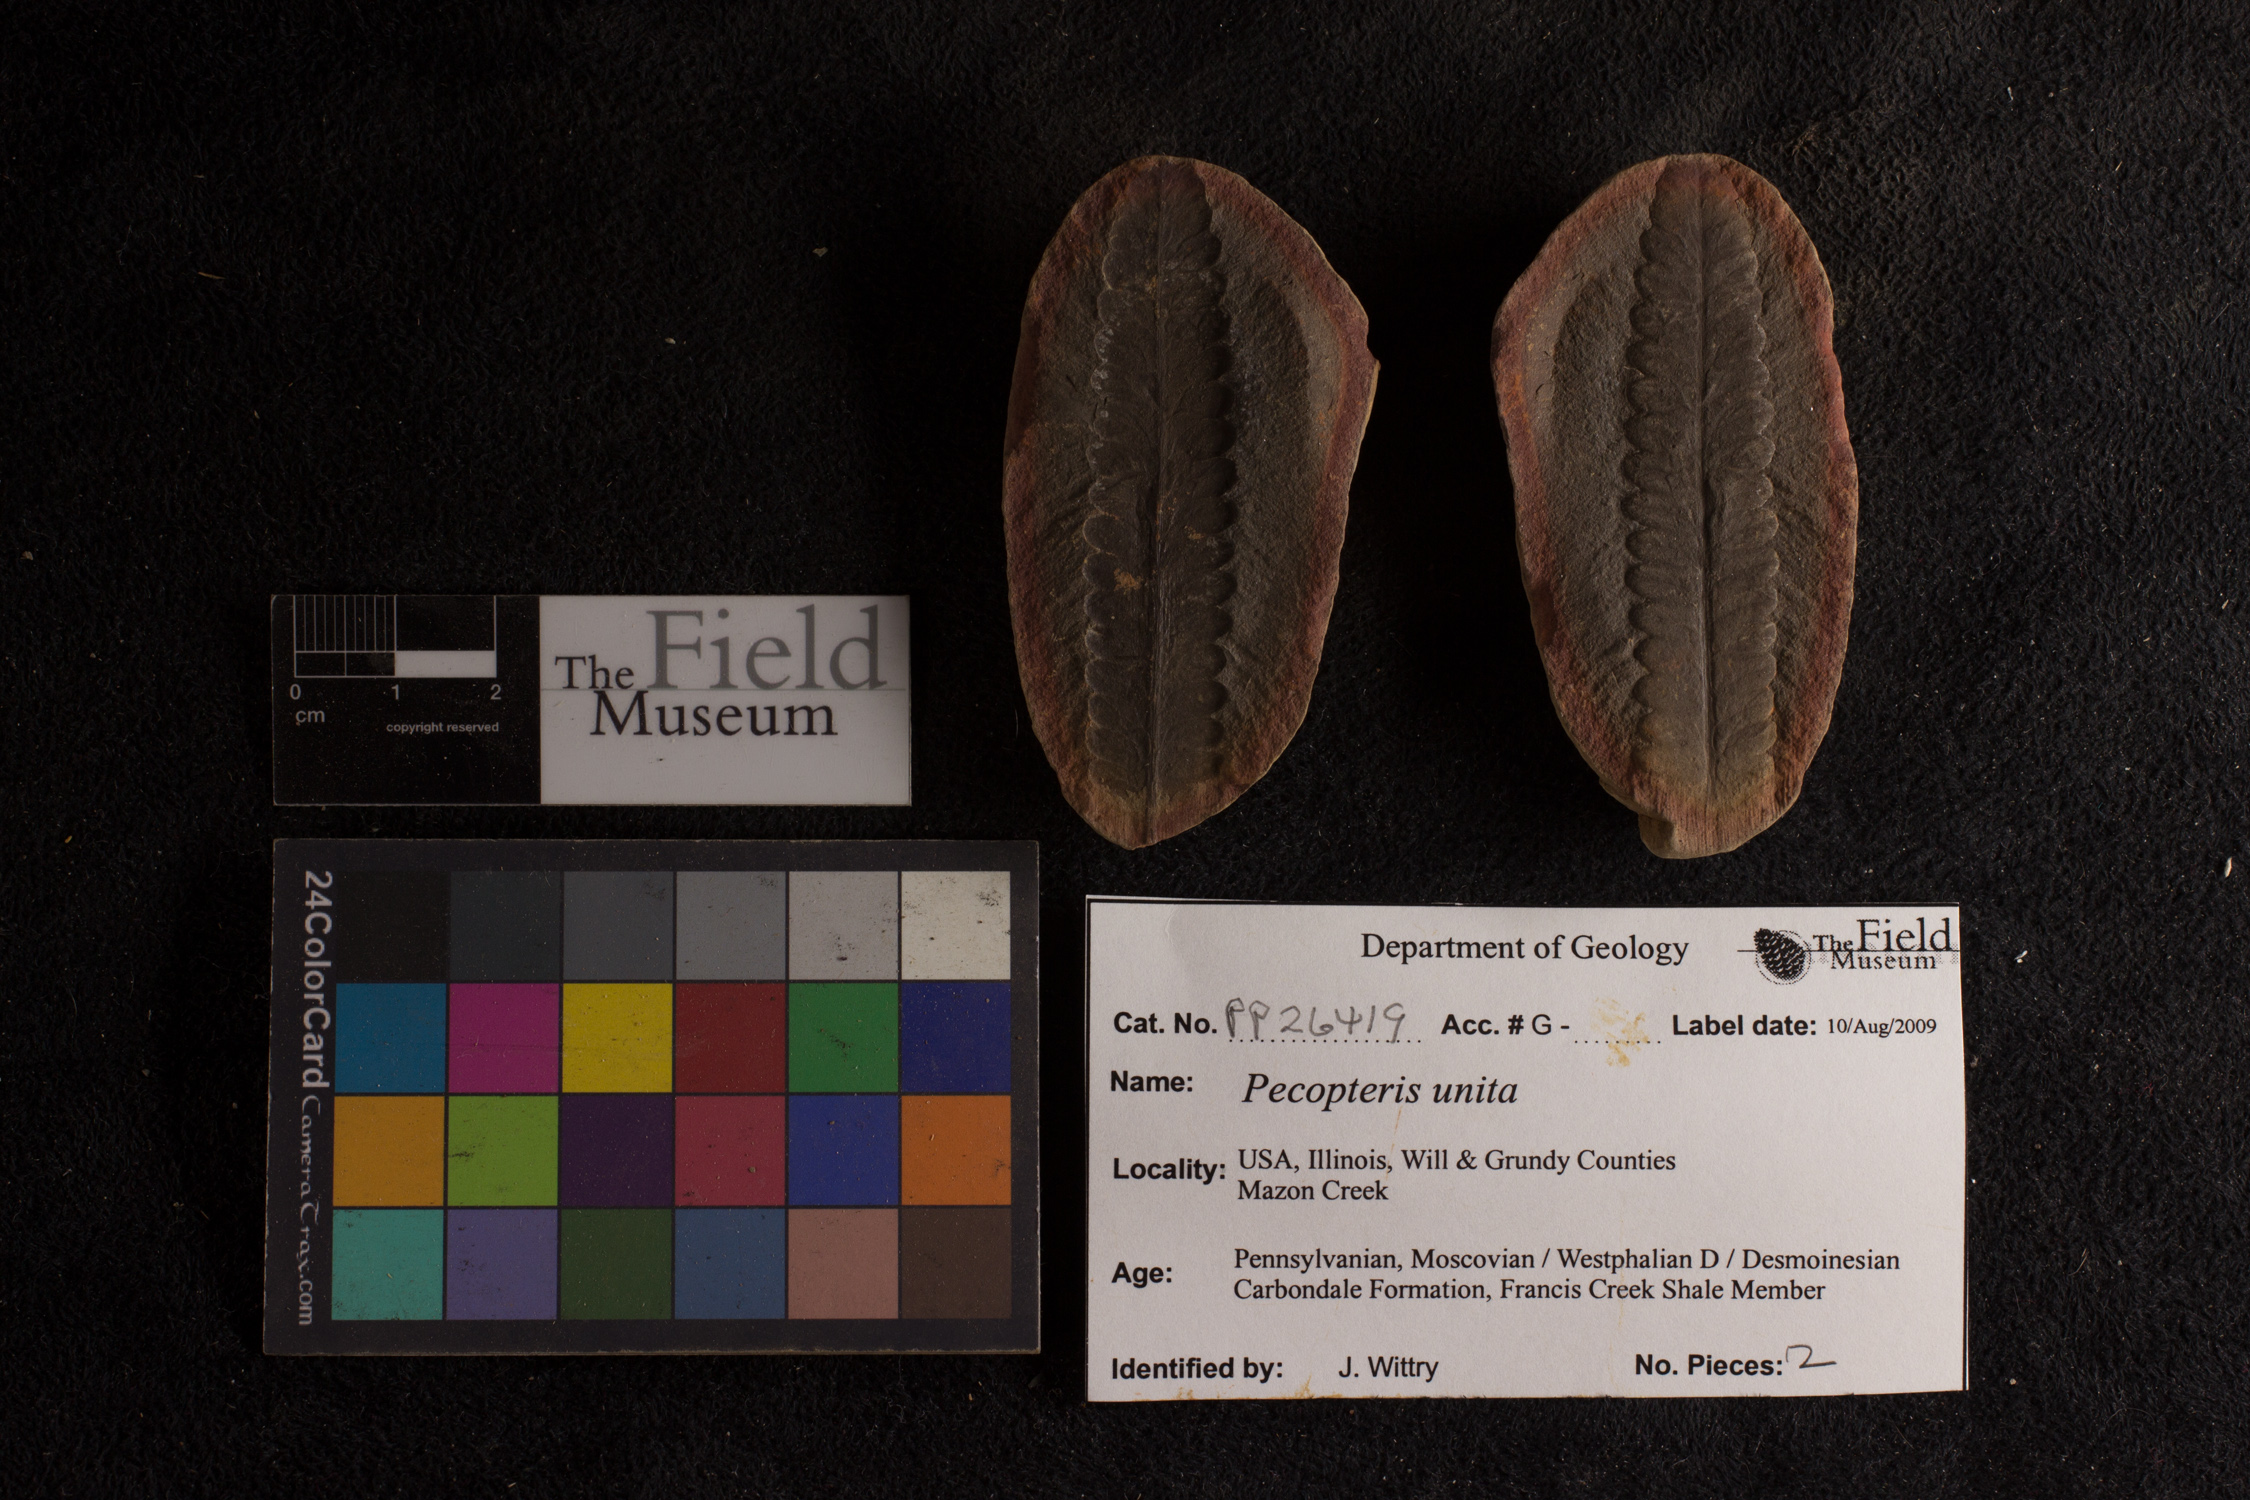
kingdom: Plantae
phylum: Tracheophyta
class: Polypodiopsida
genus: Diplazites
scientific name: Diplazites
